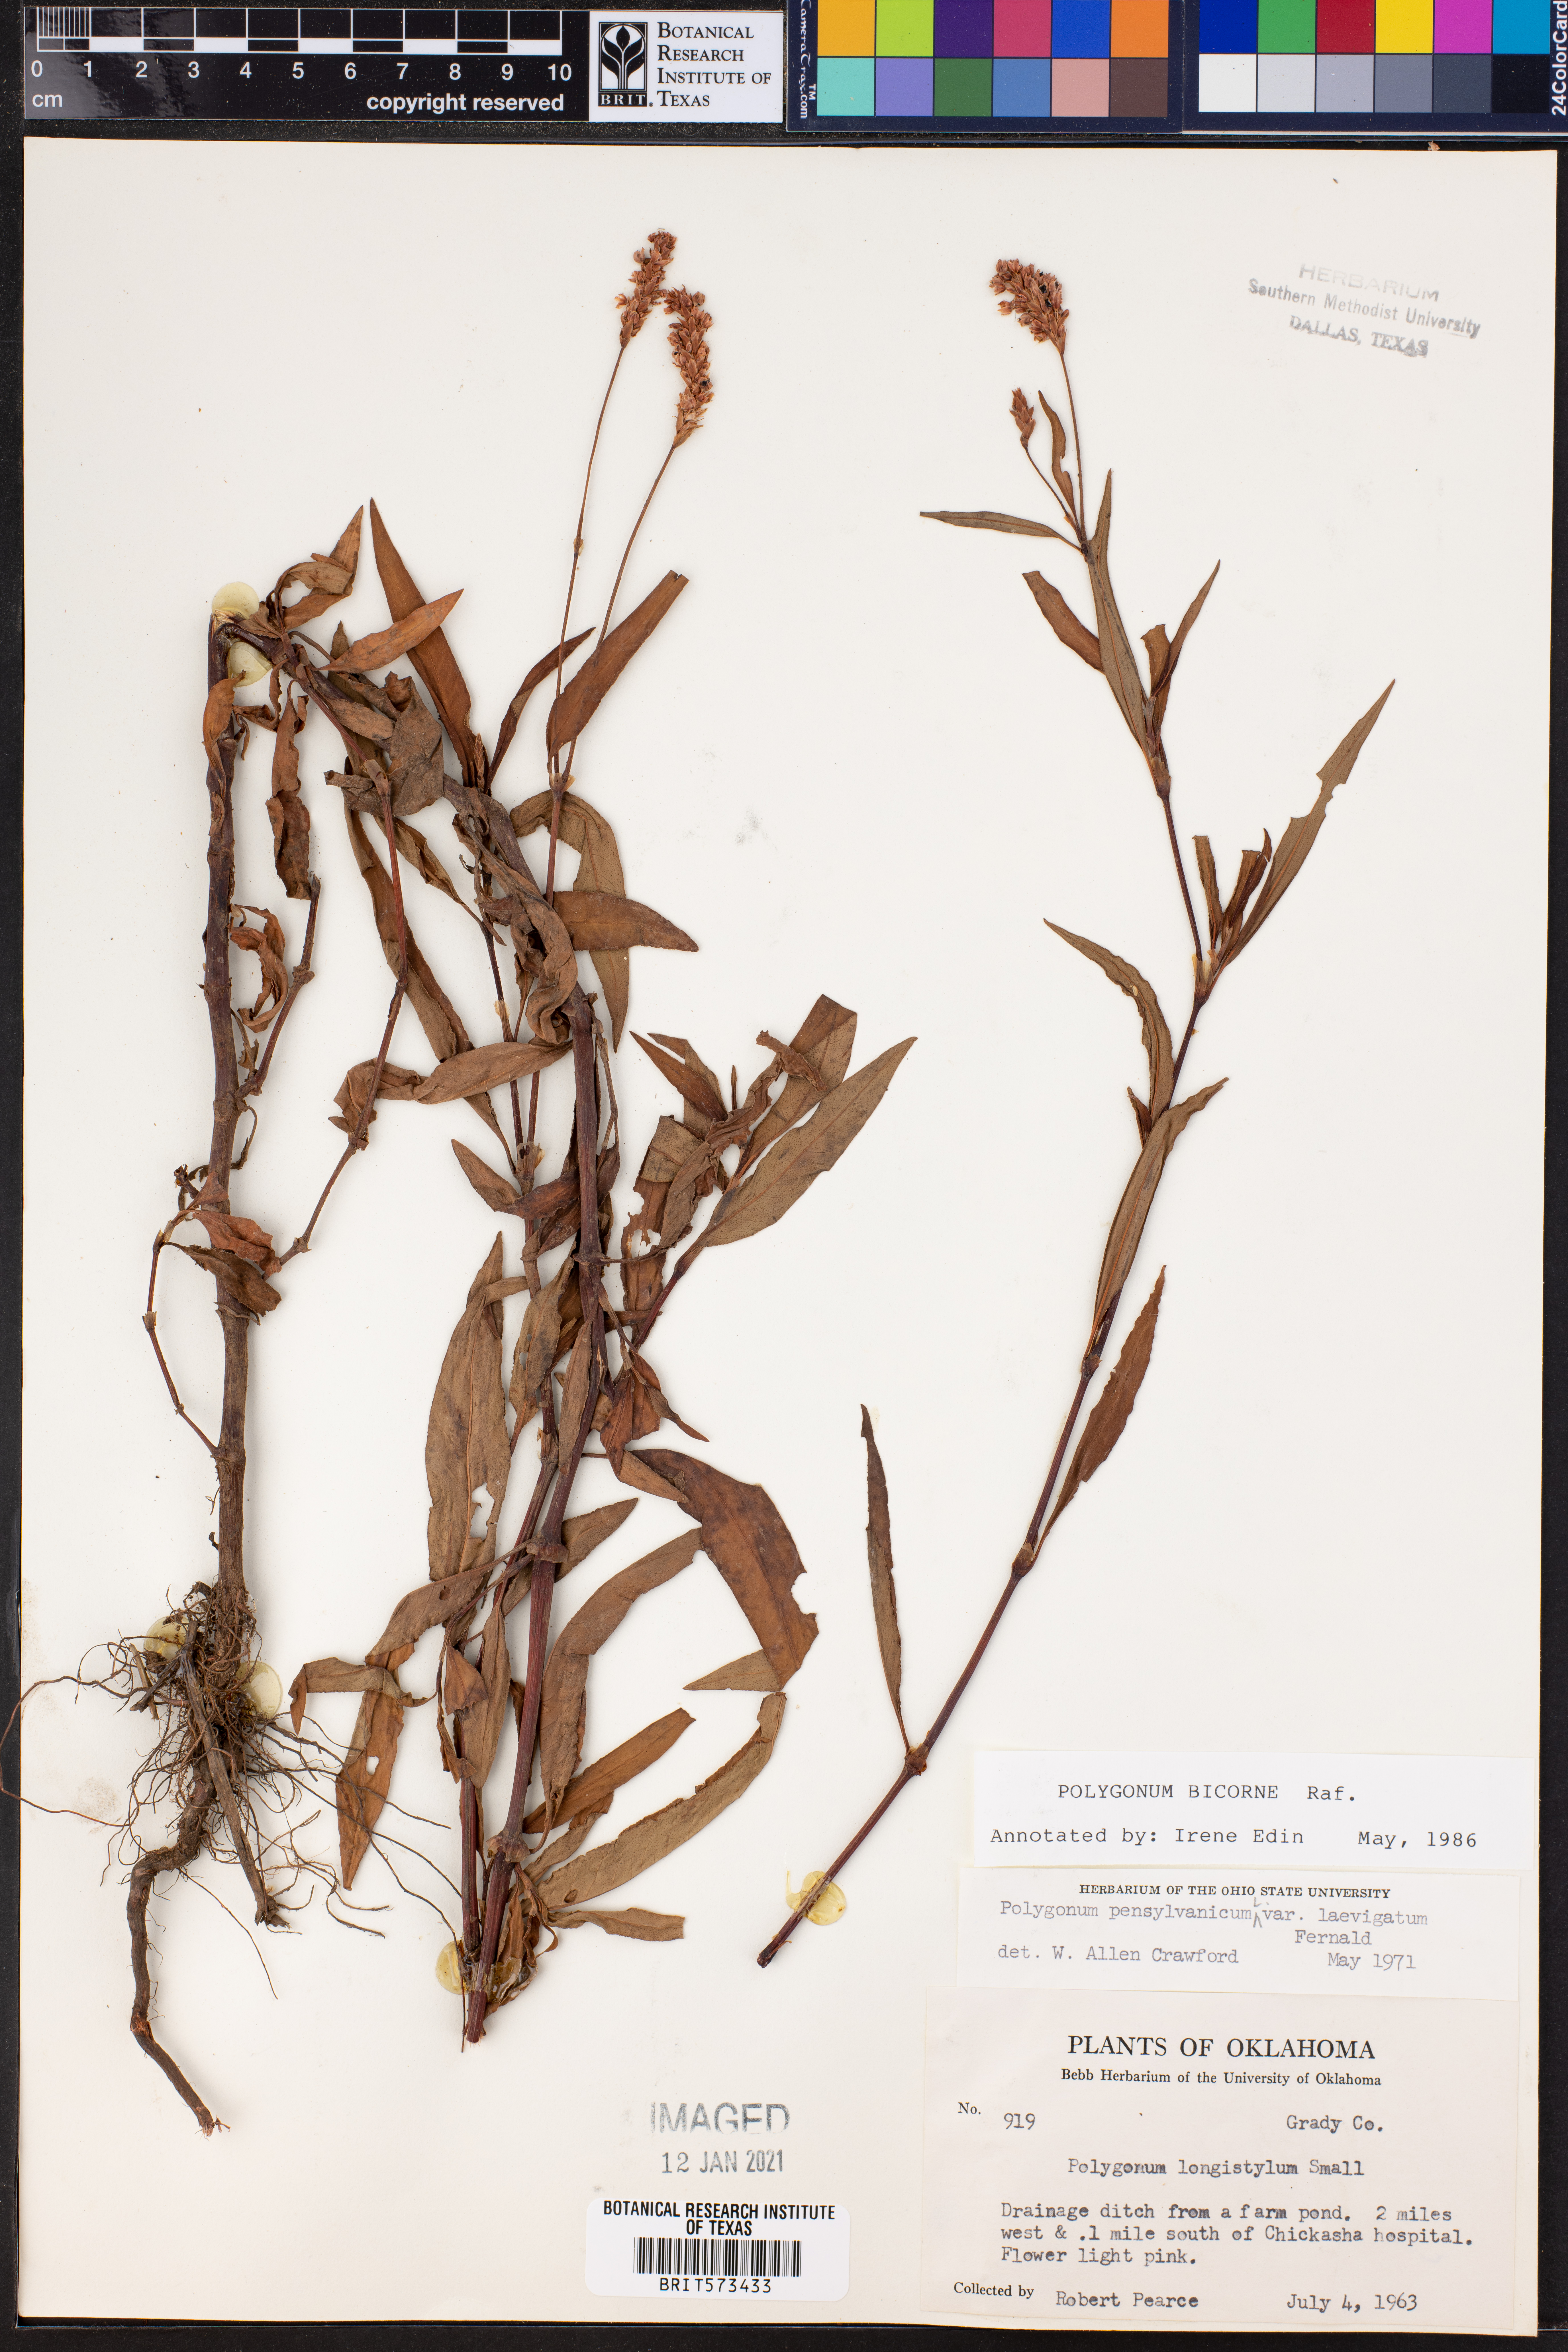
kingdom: Plantae
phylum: Tracheophyta
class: Magnoliopsida
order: Caryophyllales
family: Polygonaceae
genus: Persicaria
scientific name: Persicaria bicornis
